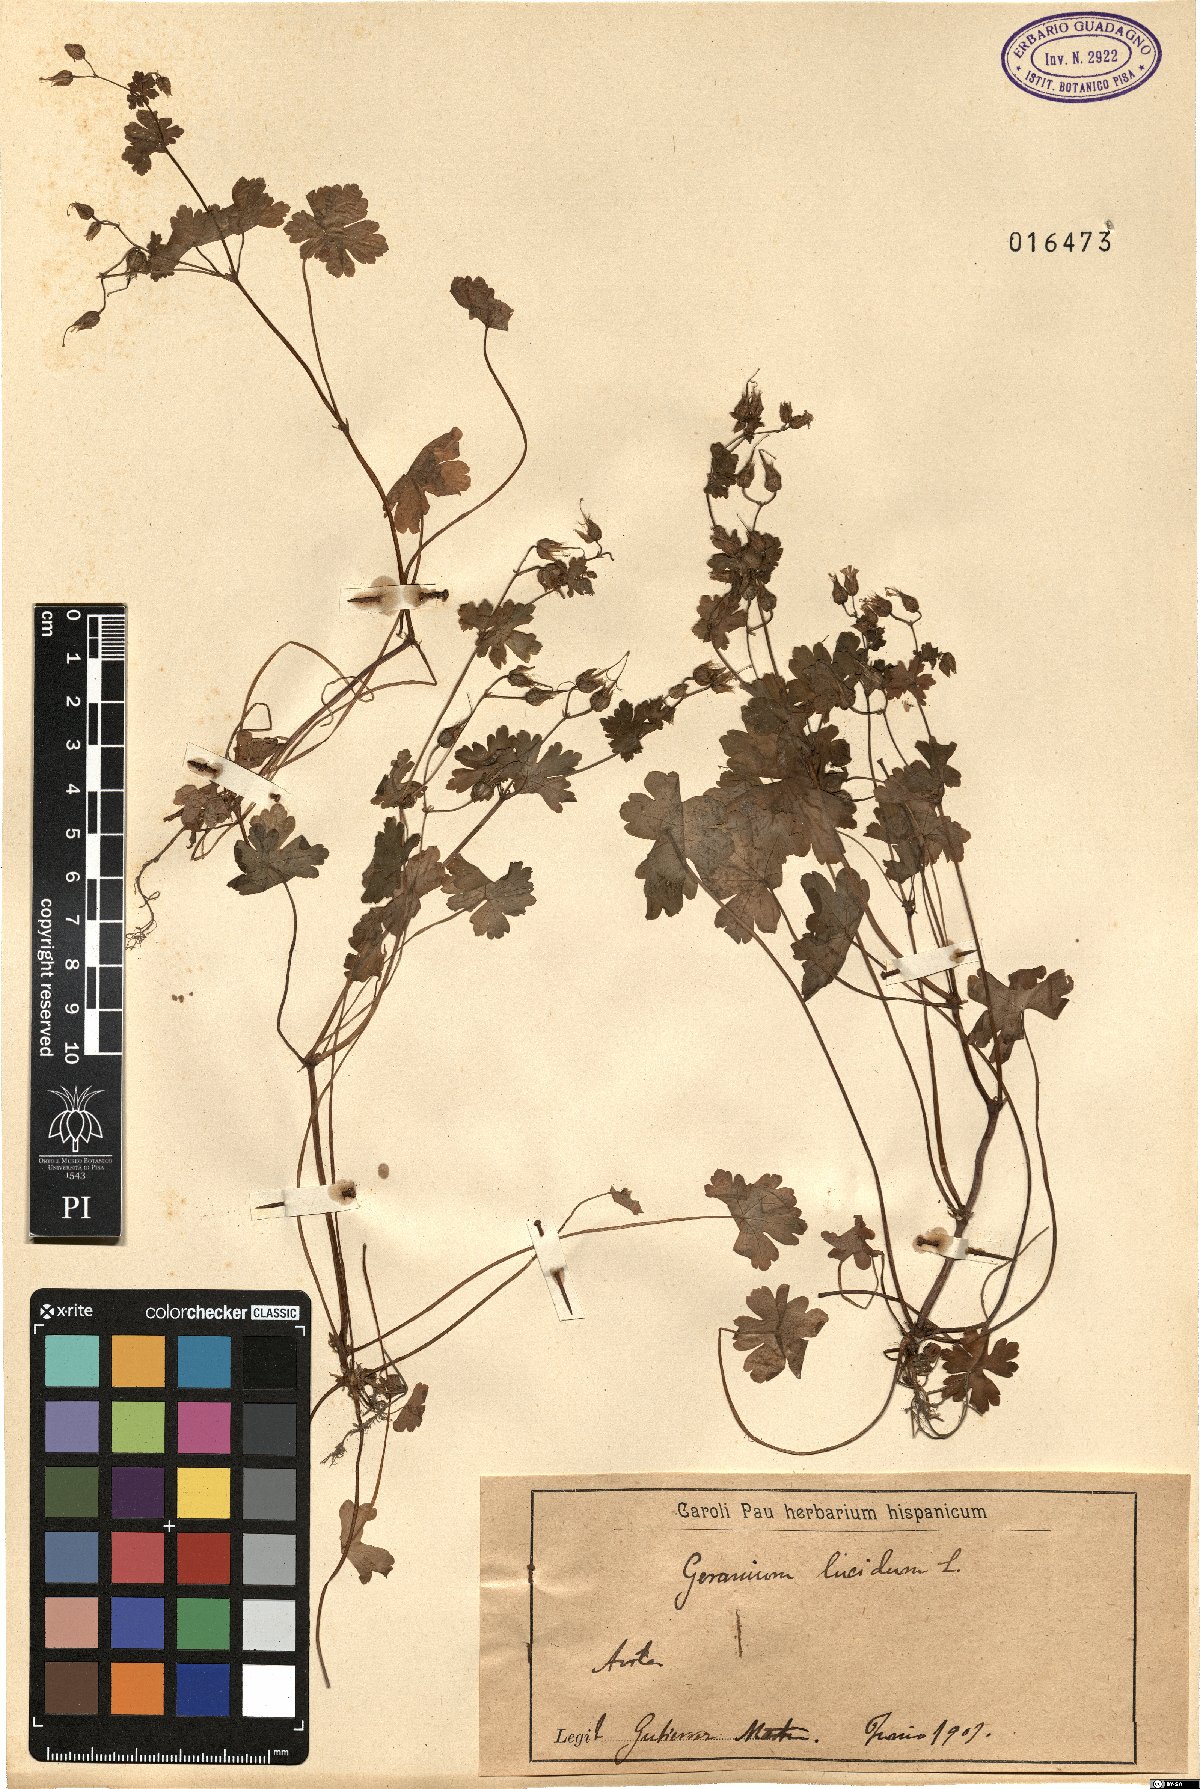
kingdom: Plantae
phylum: Tracheophyta
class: Magnoliopsida
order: Geraniales
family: Geraniaceae
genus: Geranium
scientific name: Geranium lucidum
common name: Shining crane's-bill
